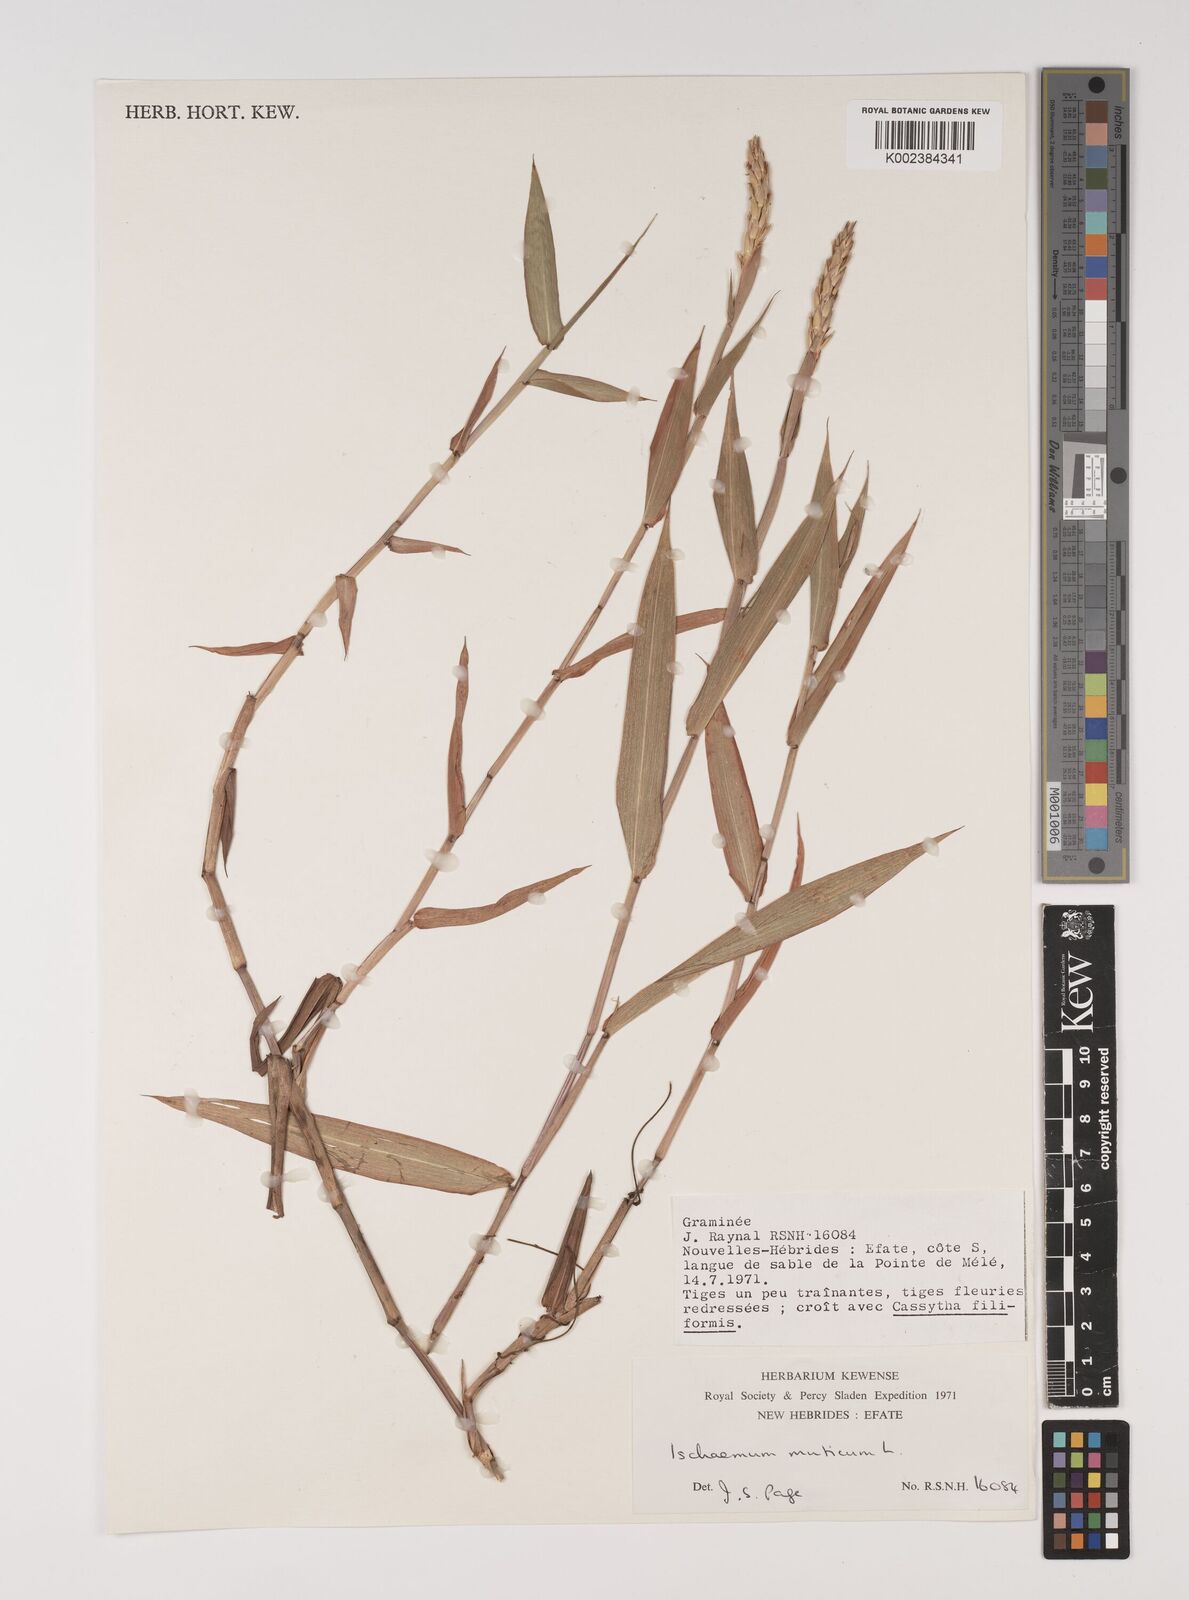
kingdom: Plantae
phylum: Tracheophyta
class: Liliopsida
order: Poales
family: Poaceae
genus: Ischaemum
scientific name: Ischaemum muticum
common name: Drought grass
